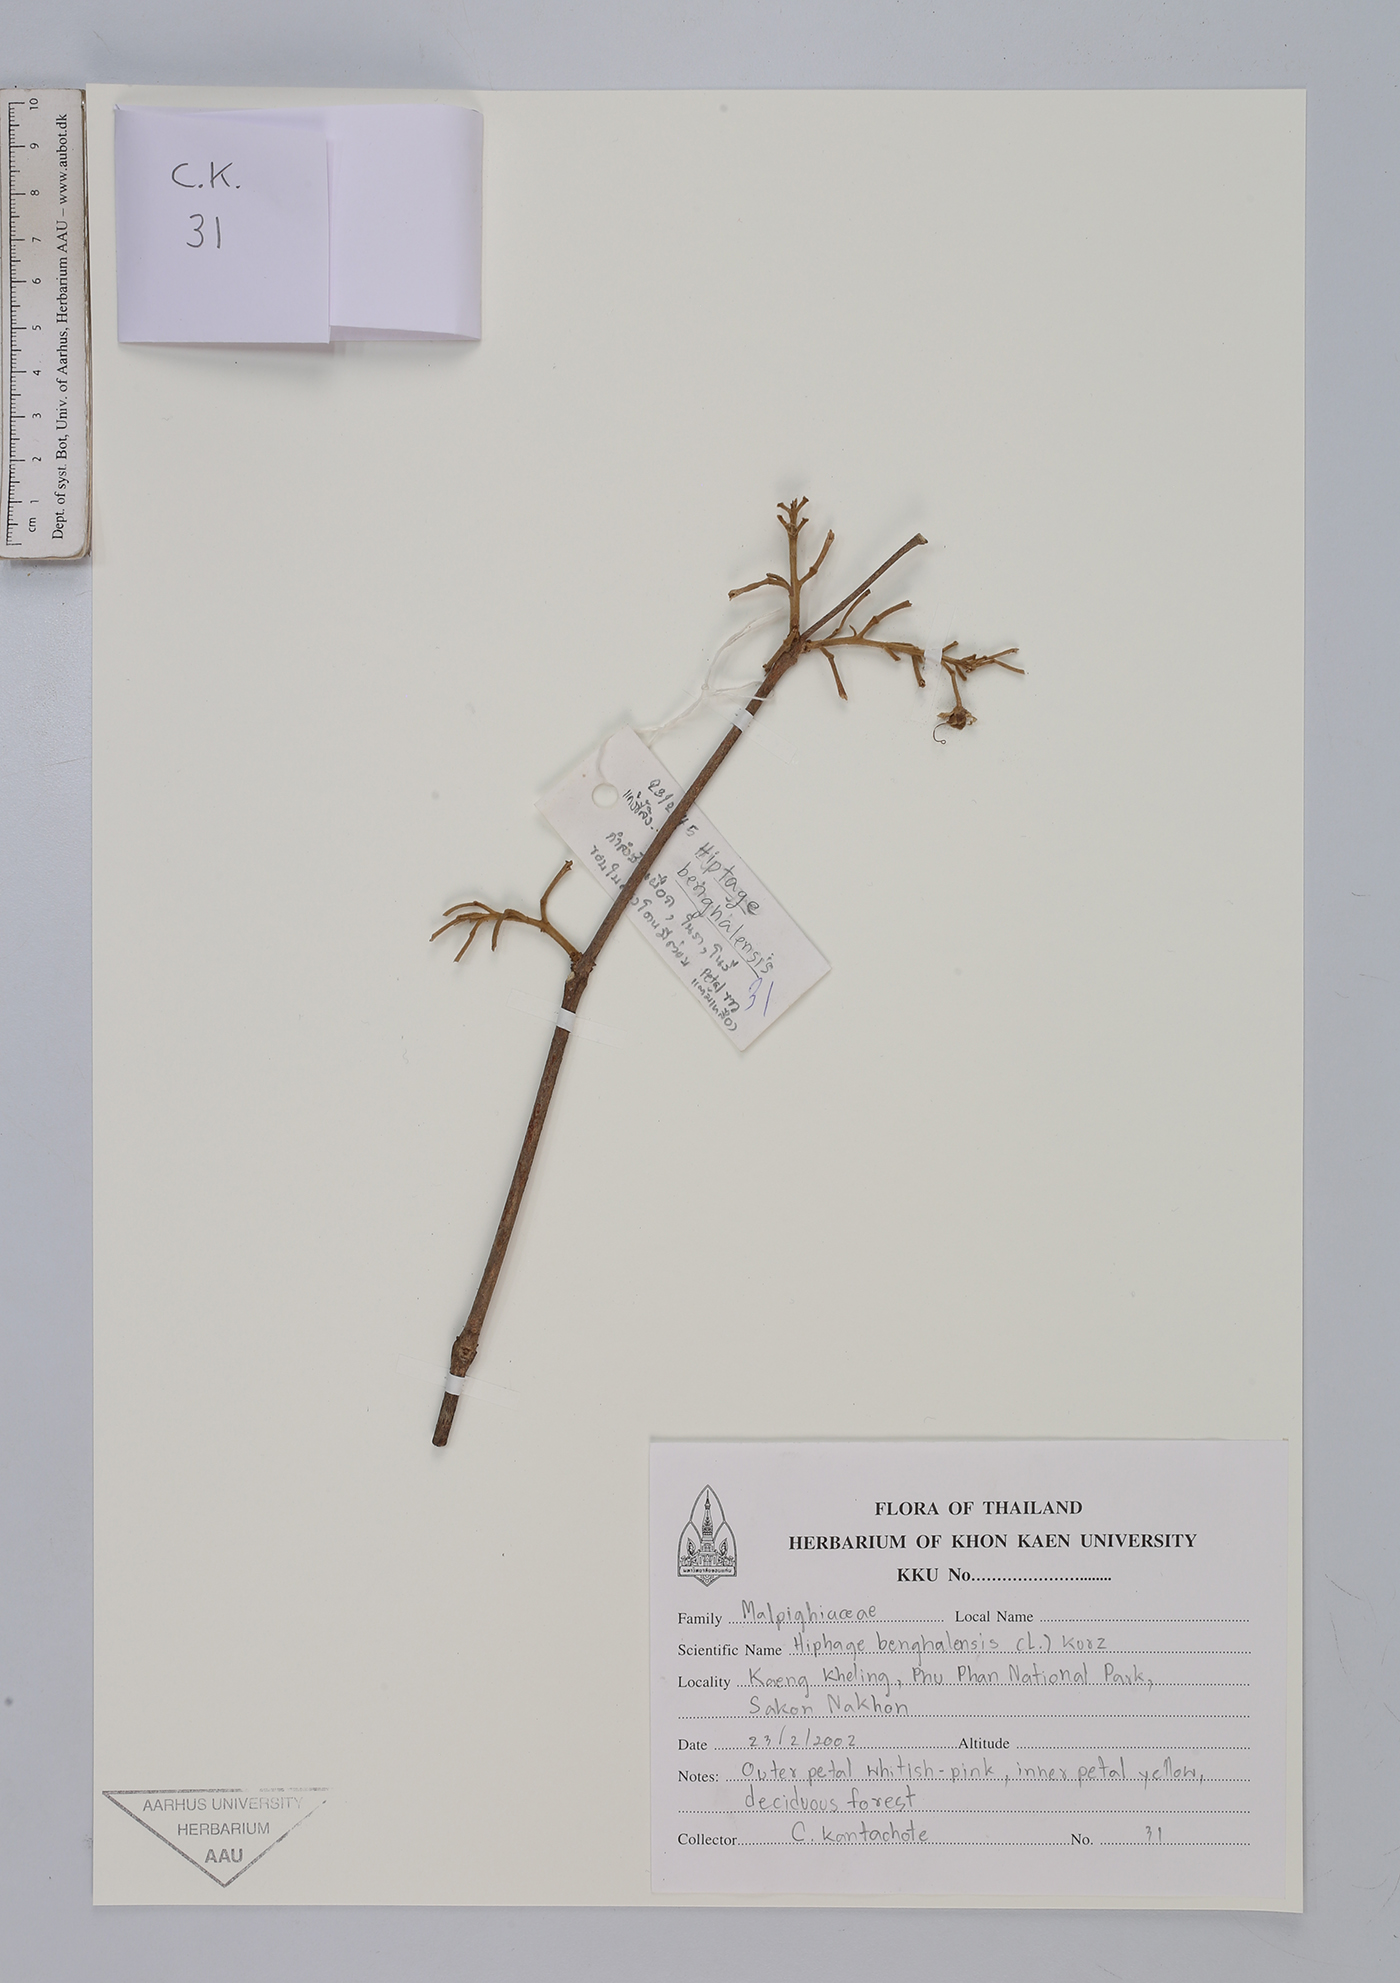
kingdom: Plantae
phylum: Tracheophyta
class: Magnoliopsida
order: Malpighiales
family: Malpighiaceae
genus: Hiptage
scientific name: Hiptage benghalensis
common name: Hiptage
